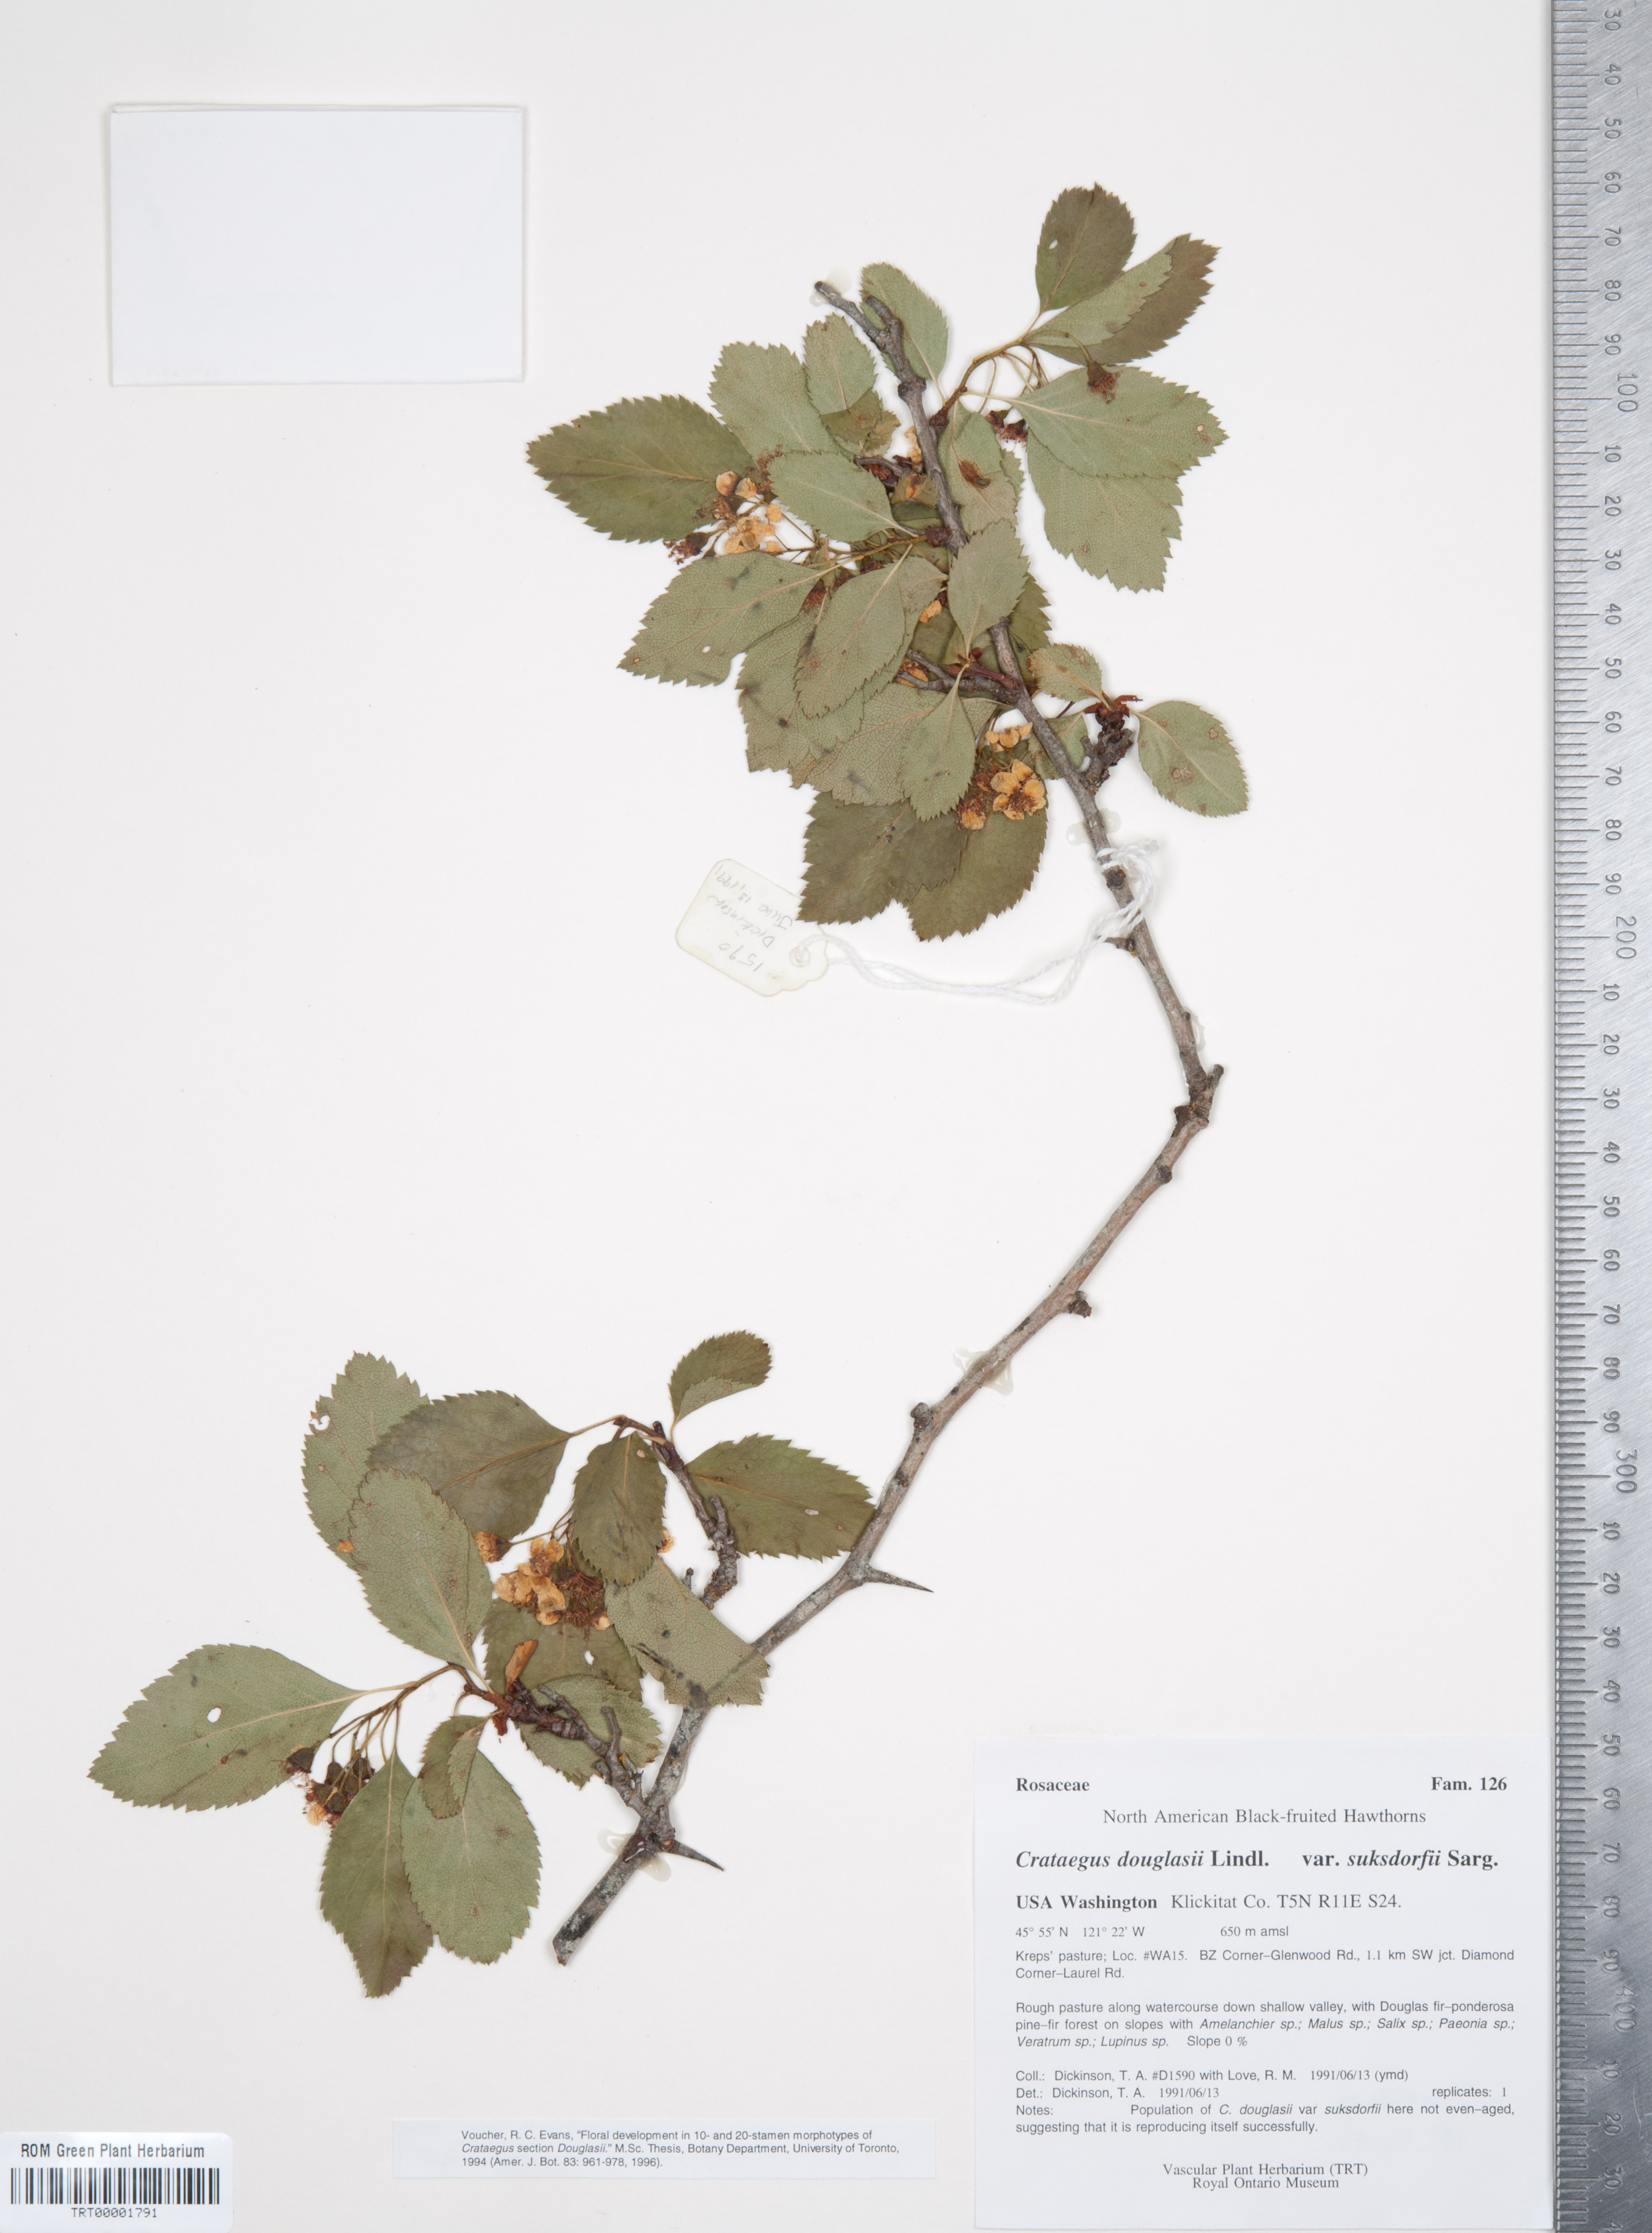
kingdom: Plantae
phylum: Tracheophyta
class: Magnoliopsida
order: Rosales
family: Rosaceae
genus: Crataegus
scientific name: Crataegus gaylussacia
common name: Huckleberry hawthorn
